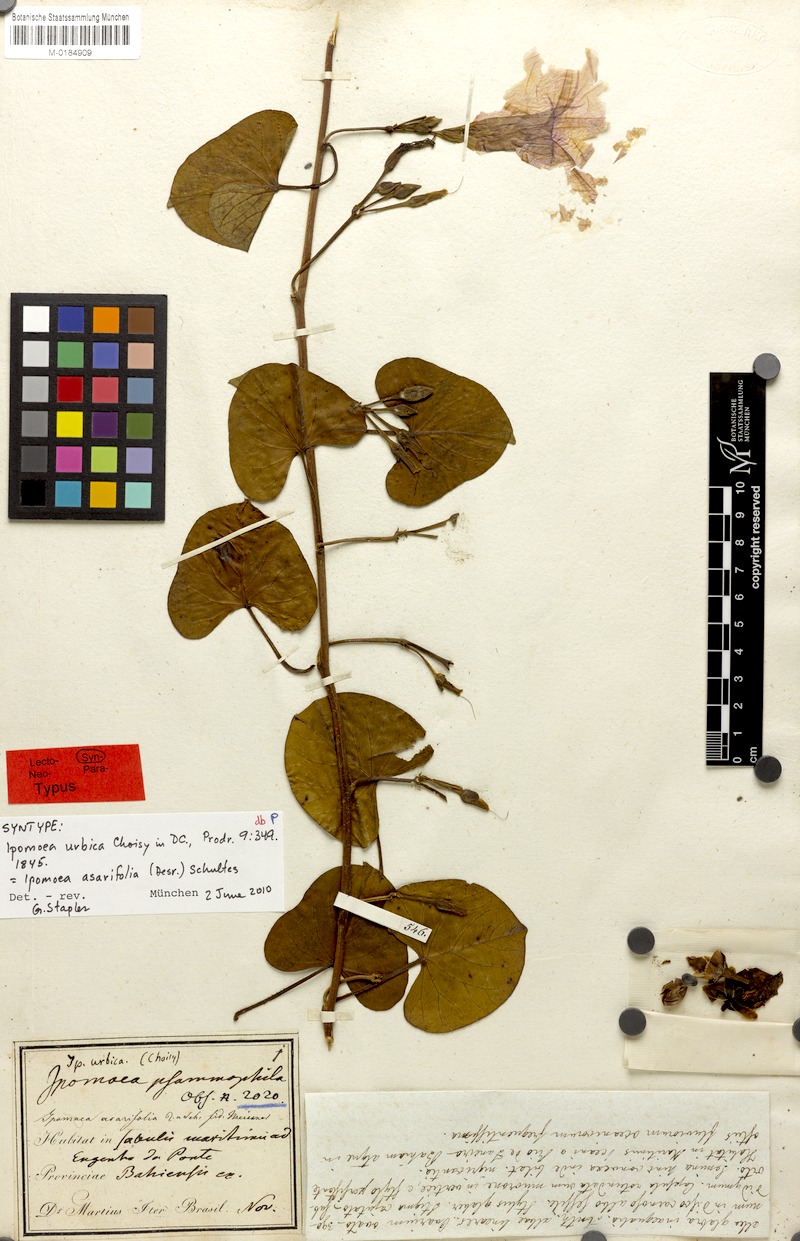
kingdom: Plantae
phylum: Tracheophyta
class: Magnoliopsida
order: Solanales
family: Convolvulaceae
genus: Ipomoea
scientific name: Ipomoea asarifolia
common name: Ginger-leaf morning-glory
